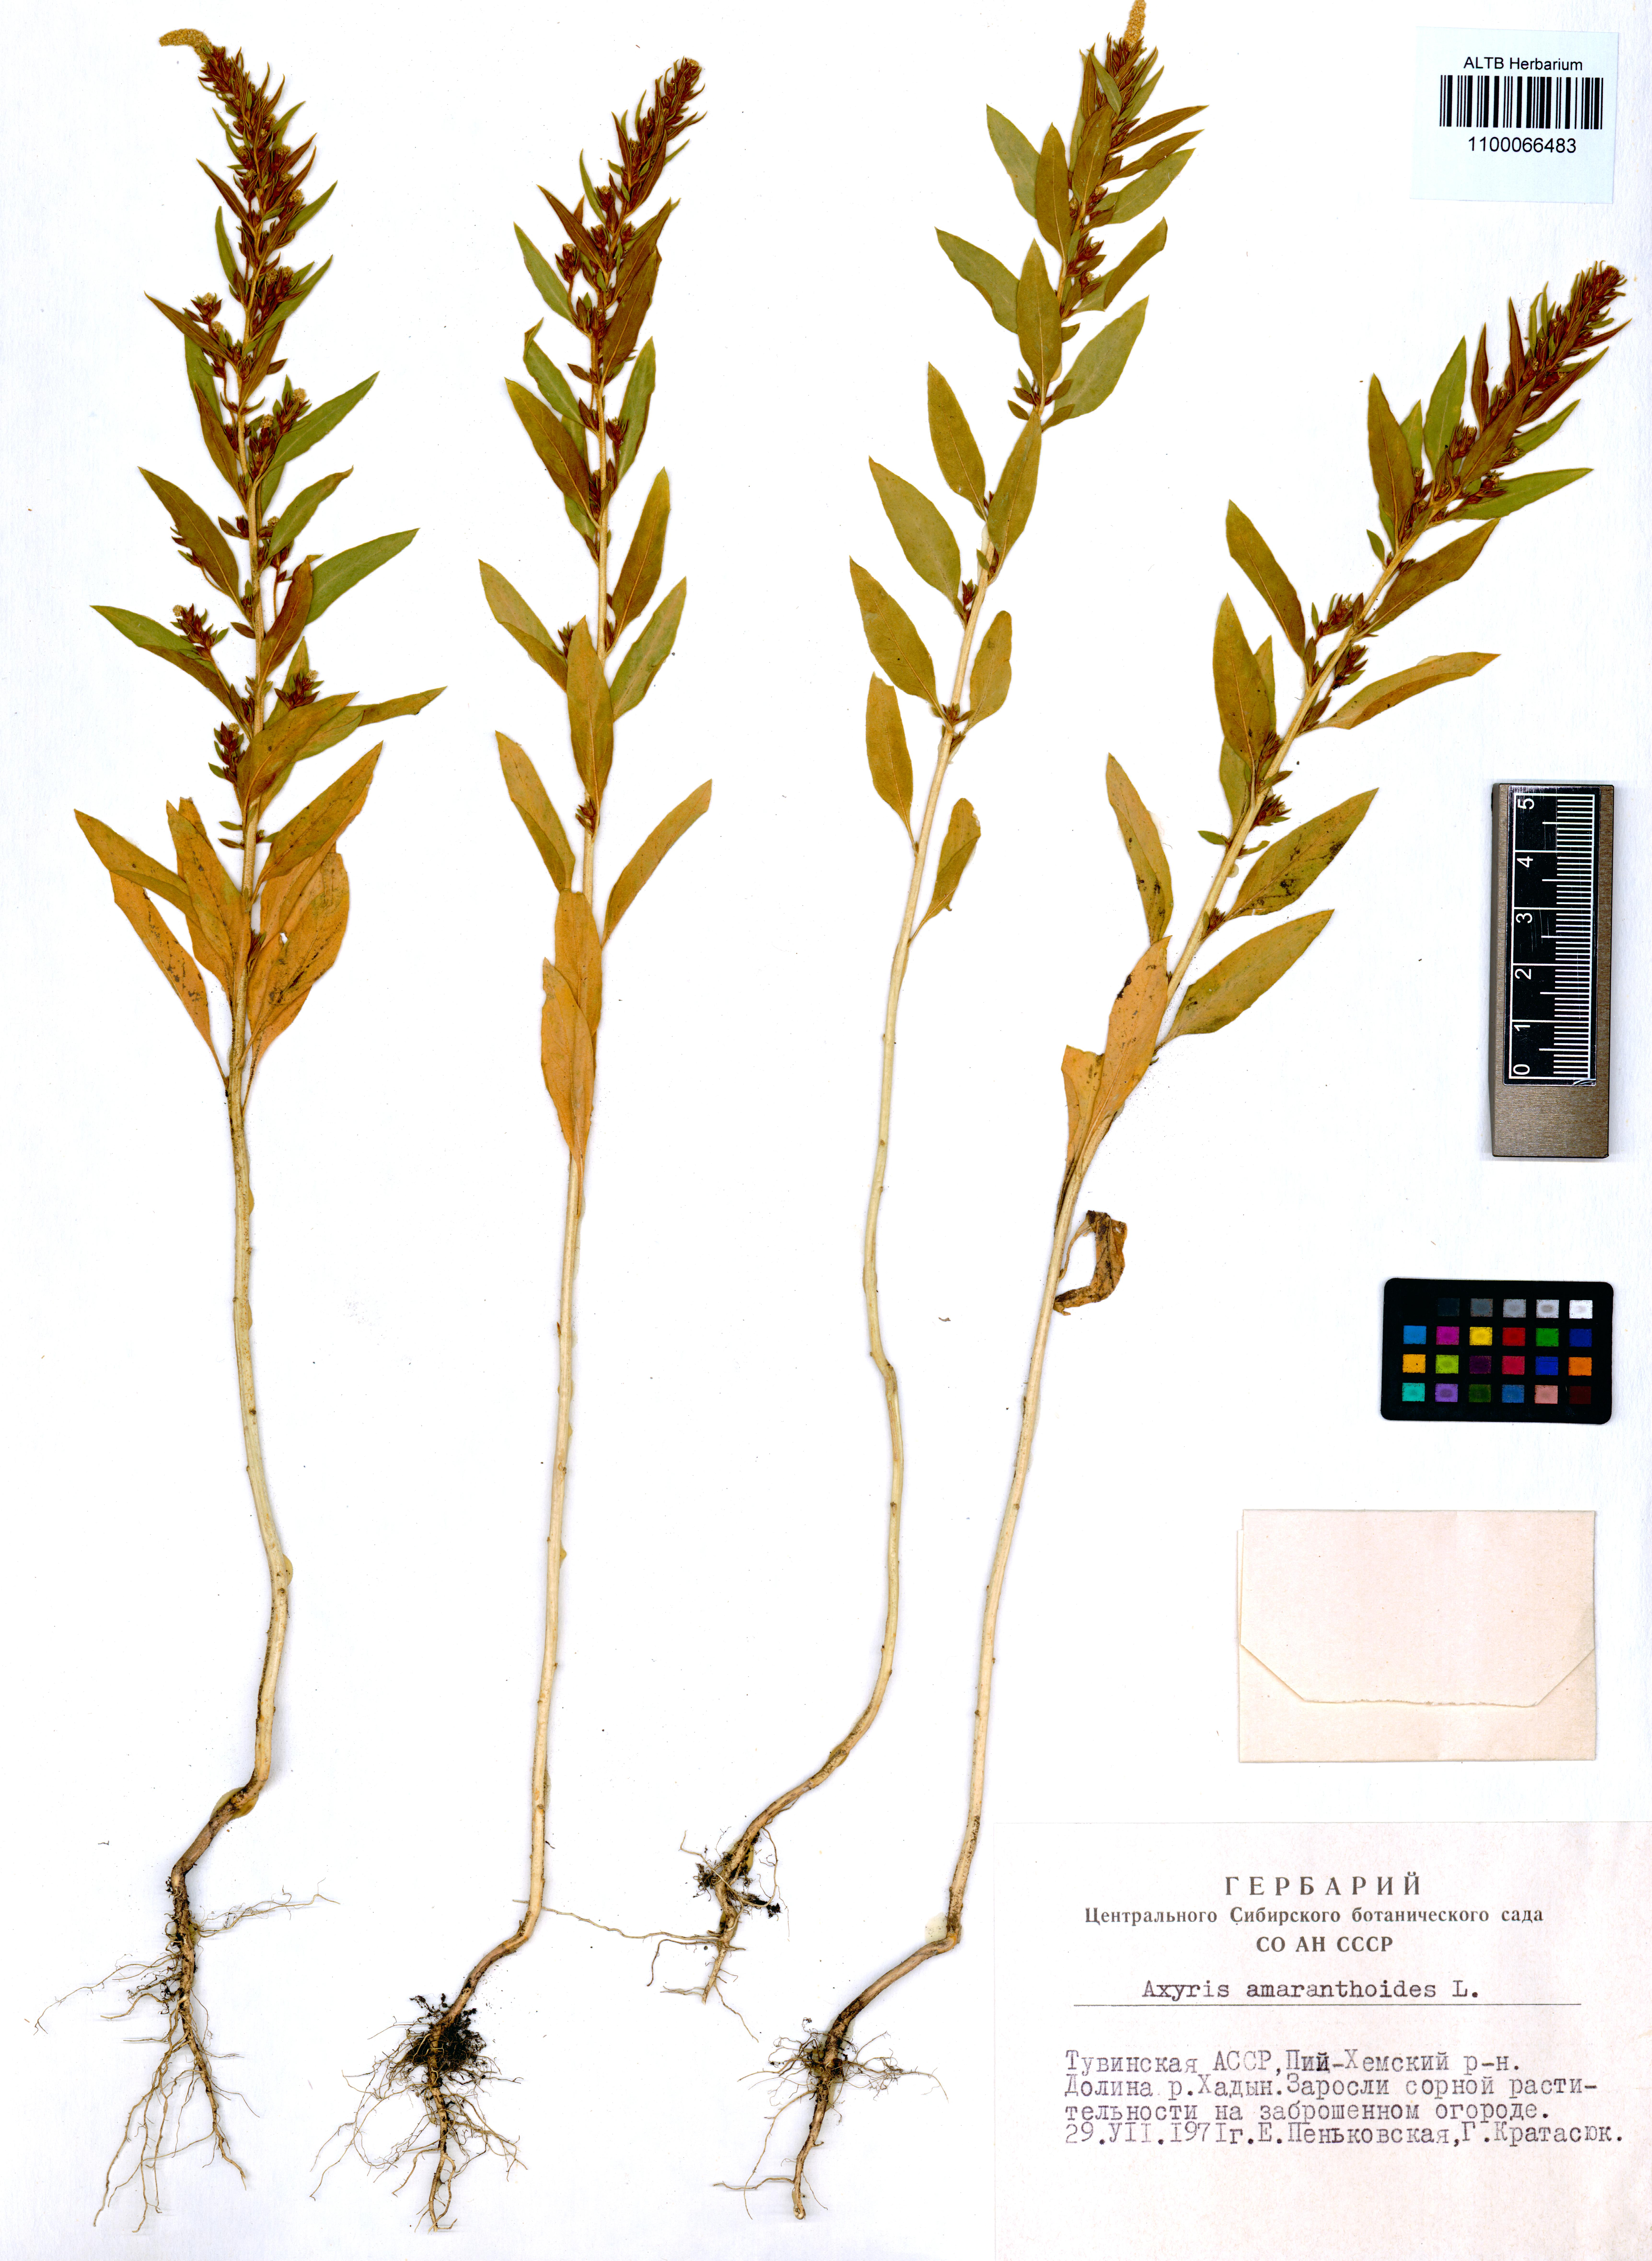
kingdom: Plantae
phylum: Tracheophyta
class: Magnoliopsida
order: Caryophyllales
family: Amaranthaceae
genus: Axyris
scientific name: Axyris amaranthoides
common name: Russian pigweed
